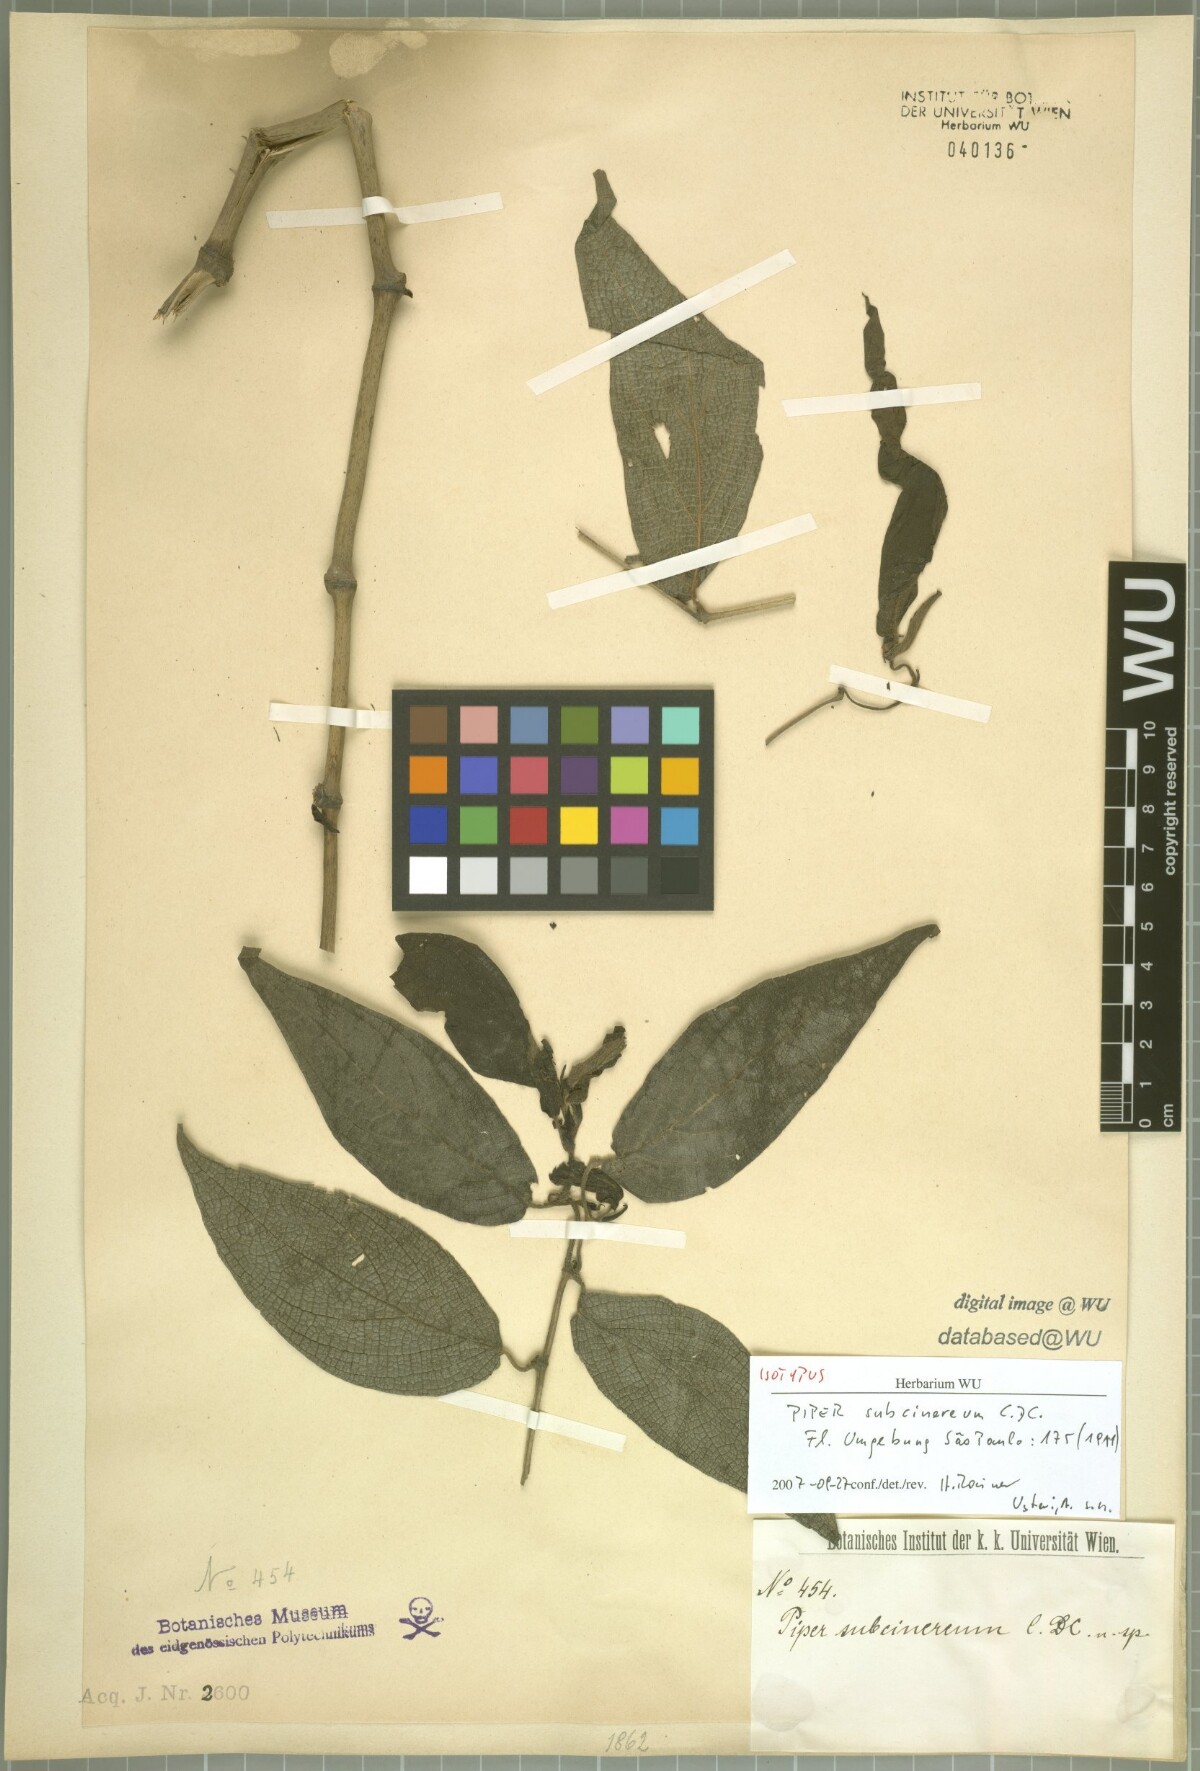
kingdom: Plantae
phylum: Tracheophyta
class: Magnoliopsida
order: Piperales
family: Piperaceae
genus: Piper
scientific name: Piper subcinereum
